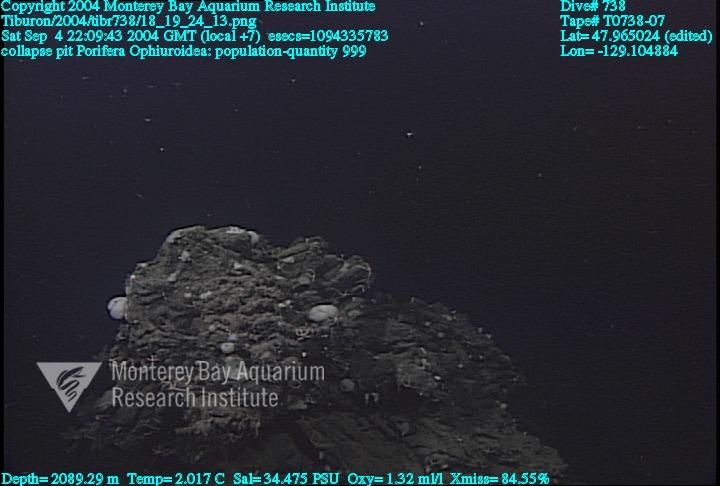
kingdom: Animalia
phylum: Porifera
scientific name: Porifera
